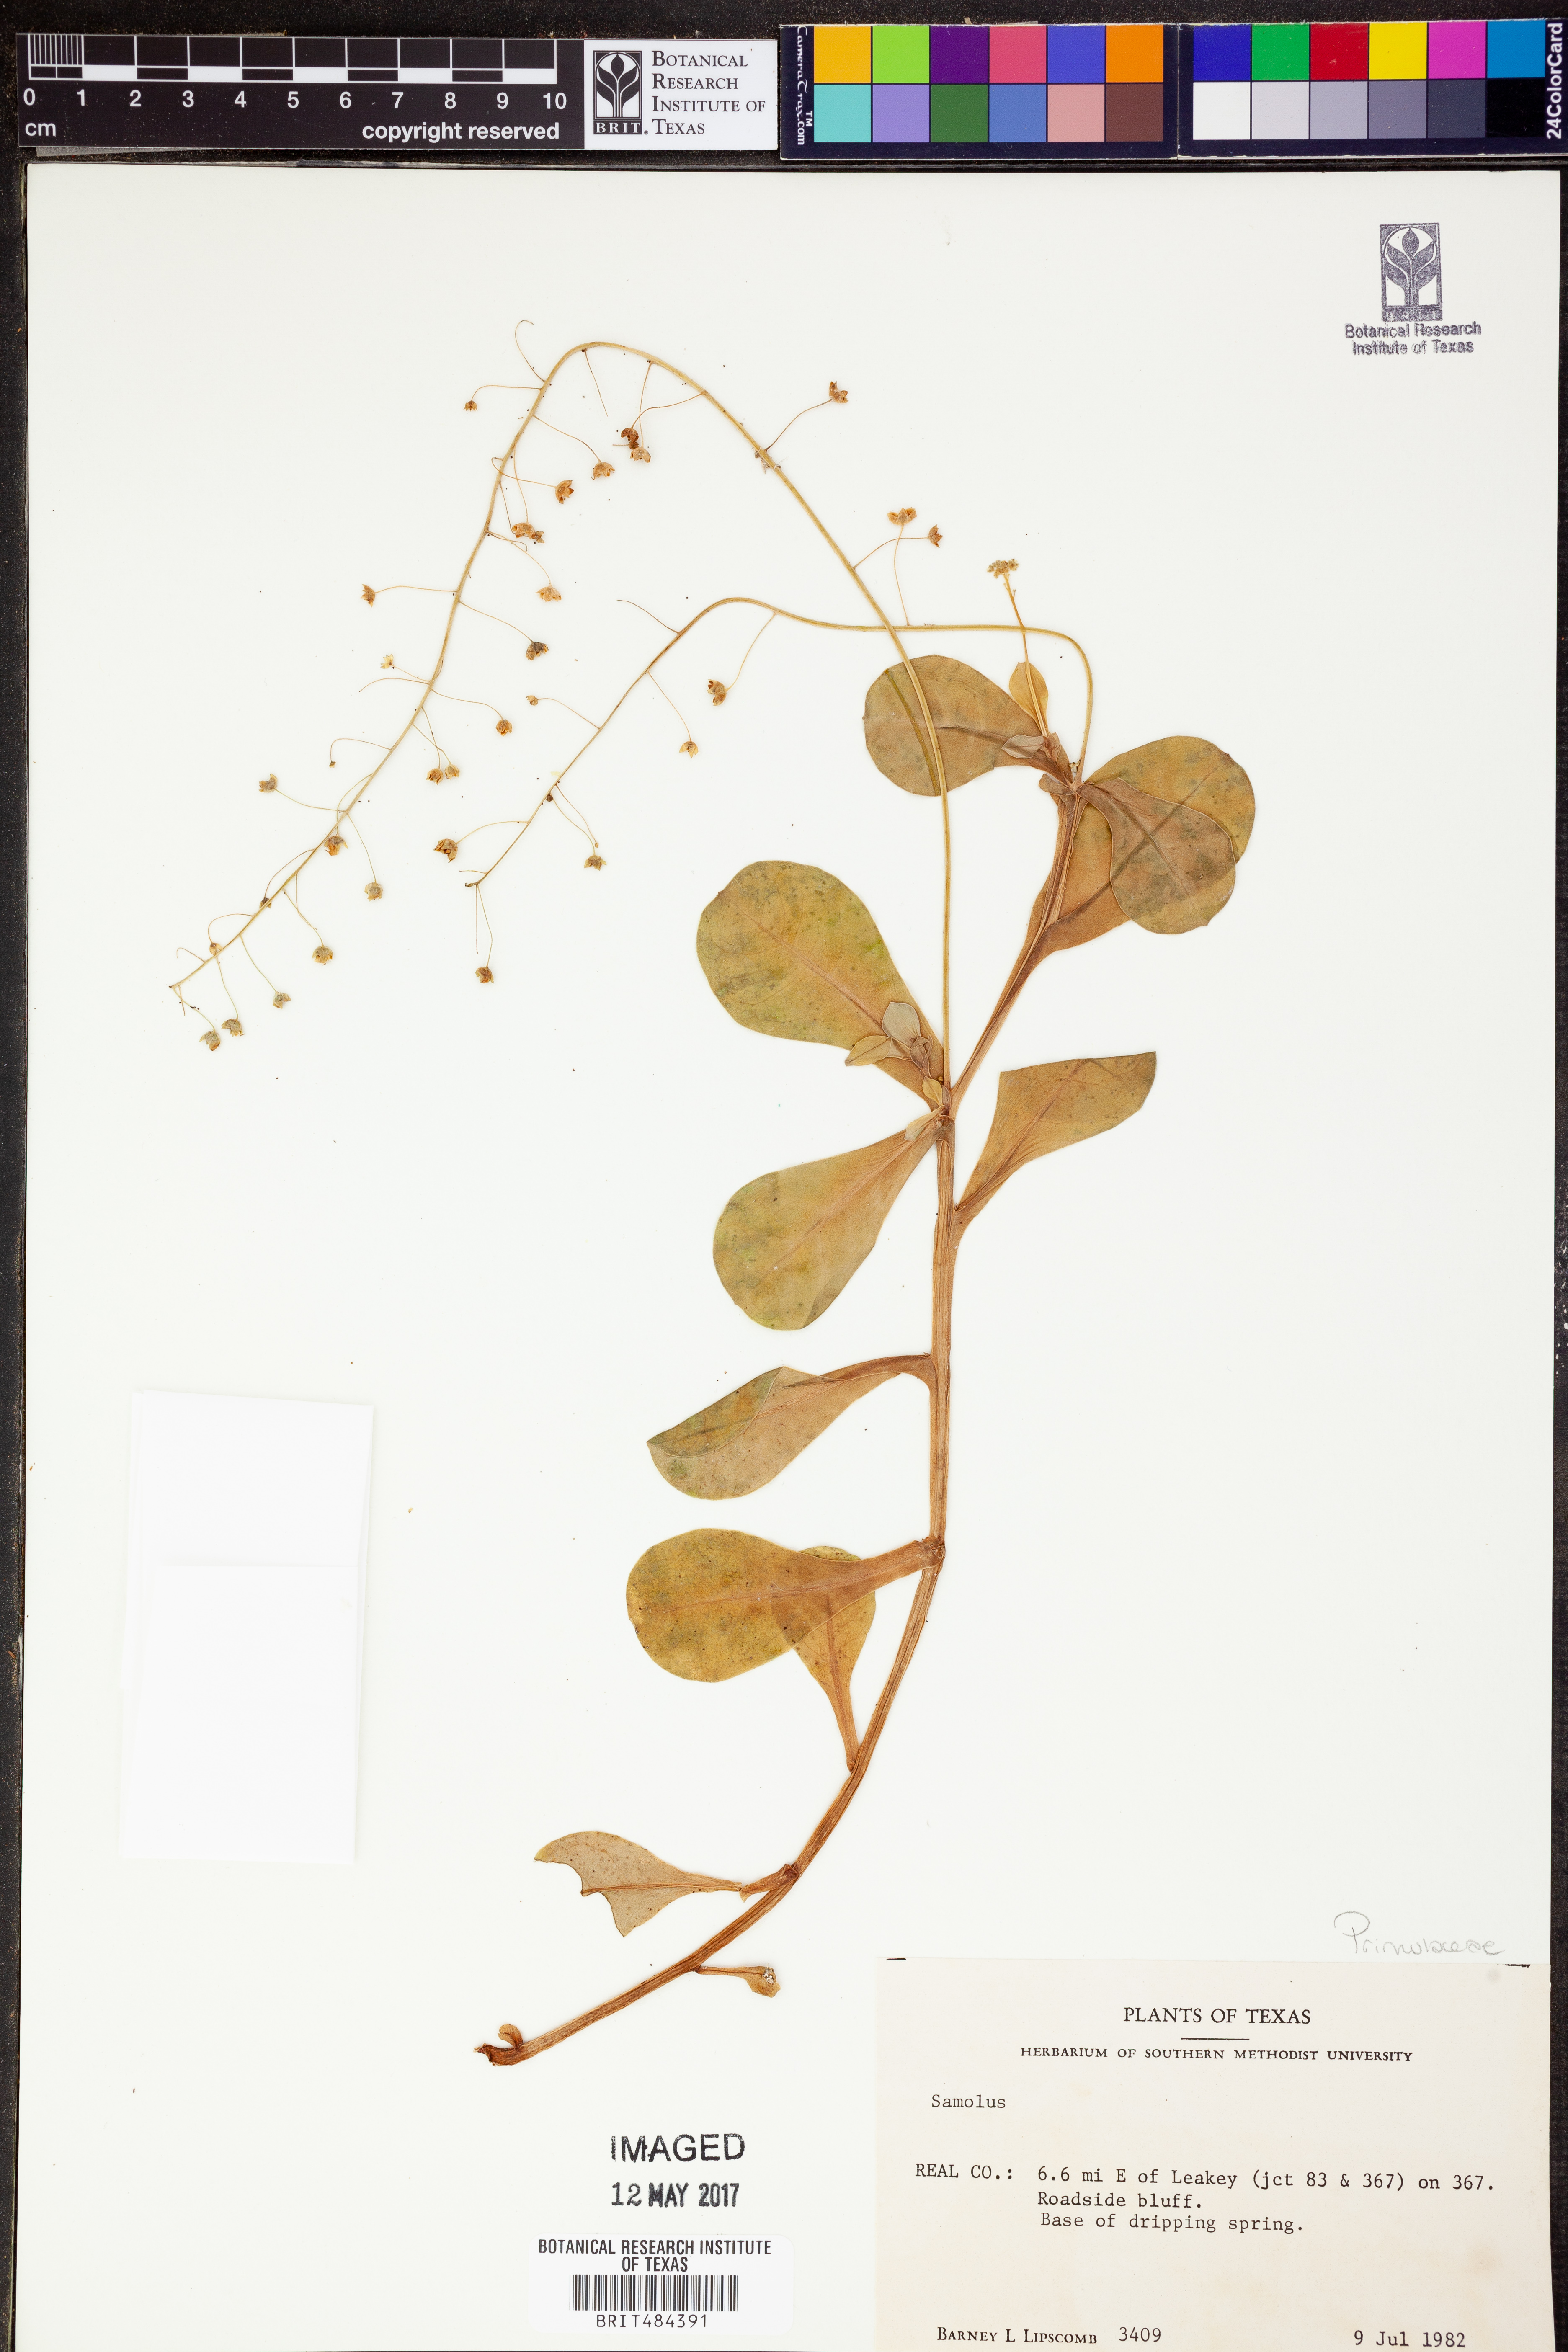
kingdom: Plantae
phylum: Tracheophyta
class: Magnoliopsida
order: Ericales
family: Primulaceae
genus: Samolus
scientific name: Samolus
